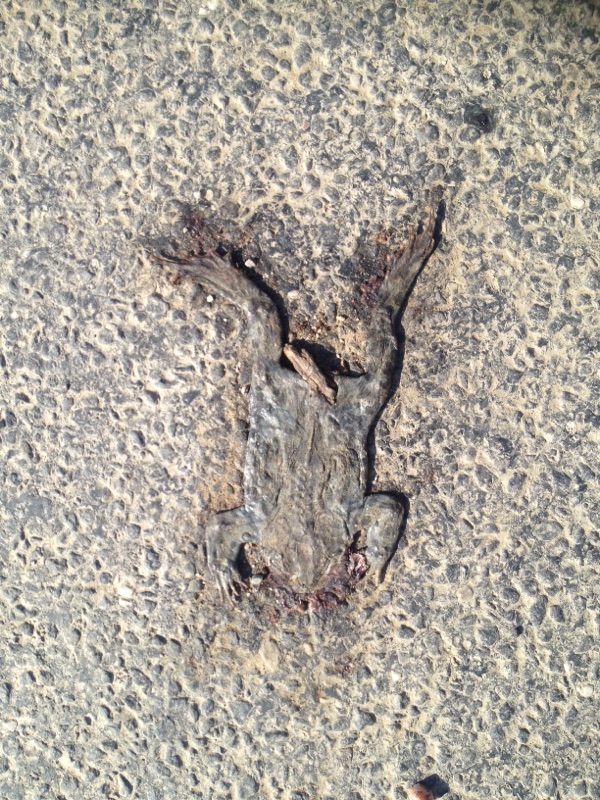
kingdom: Animalia
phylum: Chordata
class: Amphibia
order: Anura
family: Bufonidae
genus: Bufotes
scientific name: Bufotes viridis
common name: European green toad
